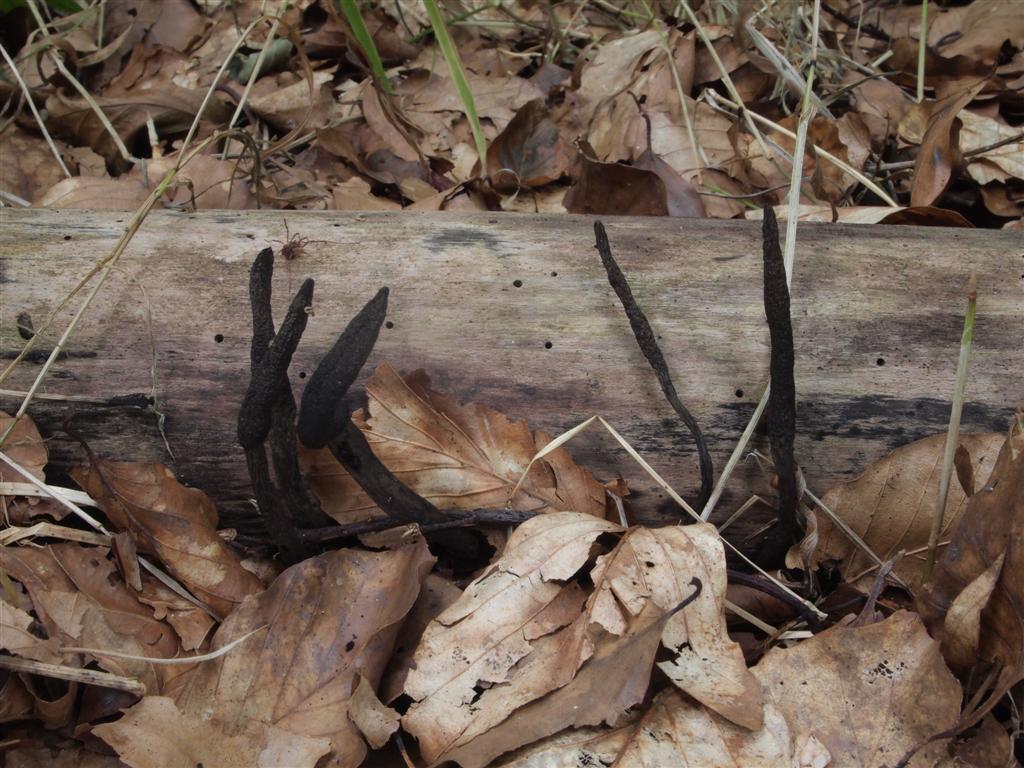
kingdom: Fungi
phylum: Ascomycota
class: Sordariomycetes
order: Xylariales
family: Xylariaceae
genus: Xylaria
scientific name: Xylaria longipes
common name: slank stødsvamp
